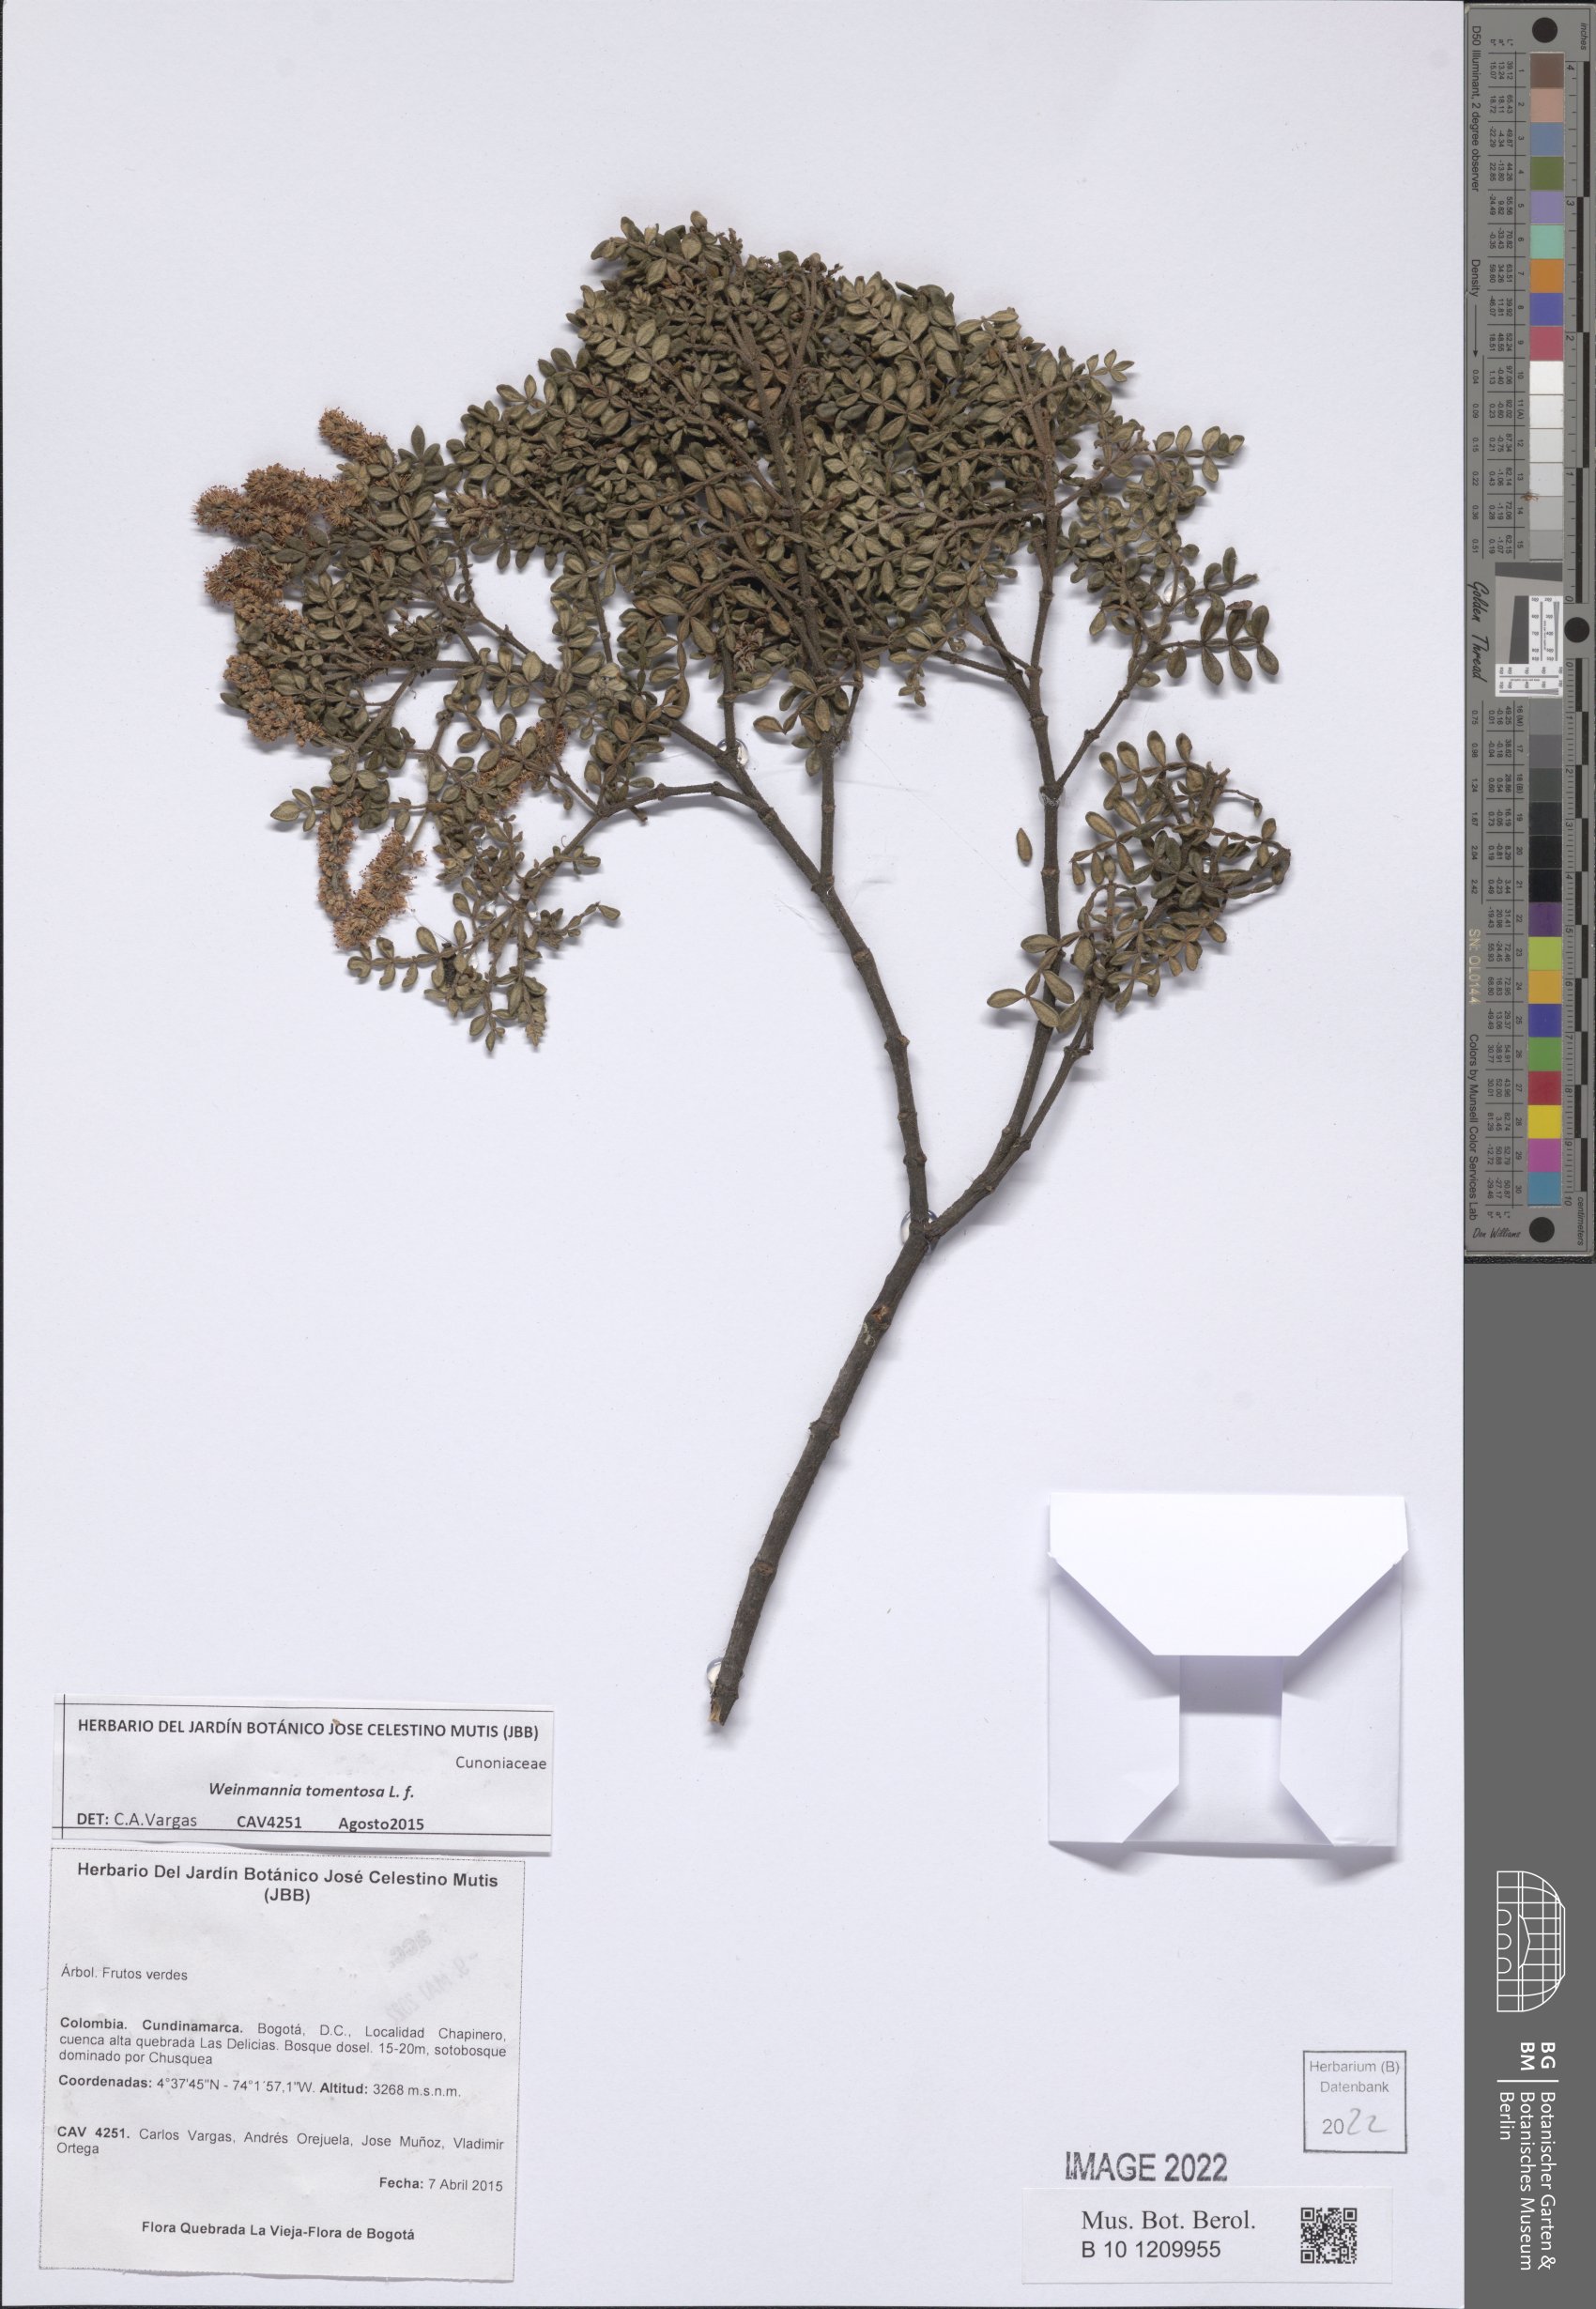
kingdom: Plantae
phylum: Tracheophyta
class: Magnoliopsida
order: Oxalidales
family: Cunoniaceae
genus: Weinmannia
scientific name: Weinmannia tomentosa
